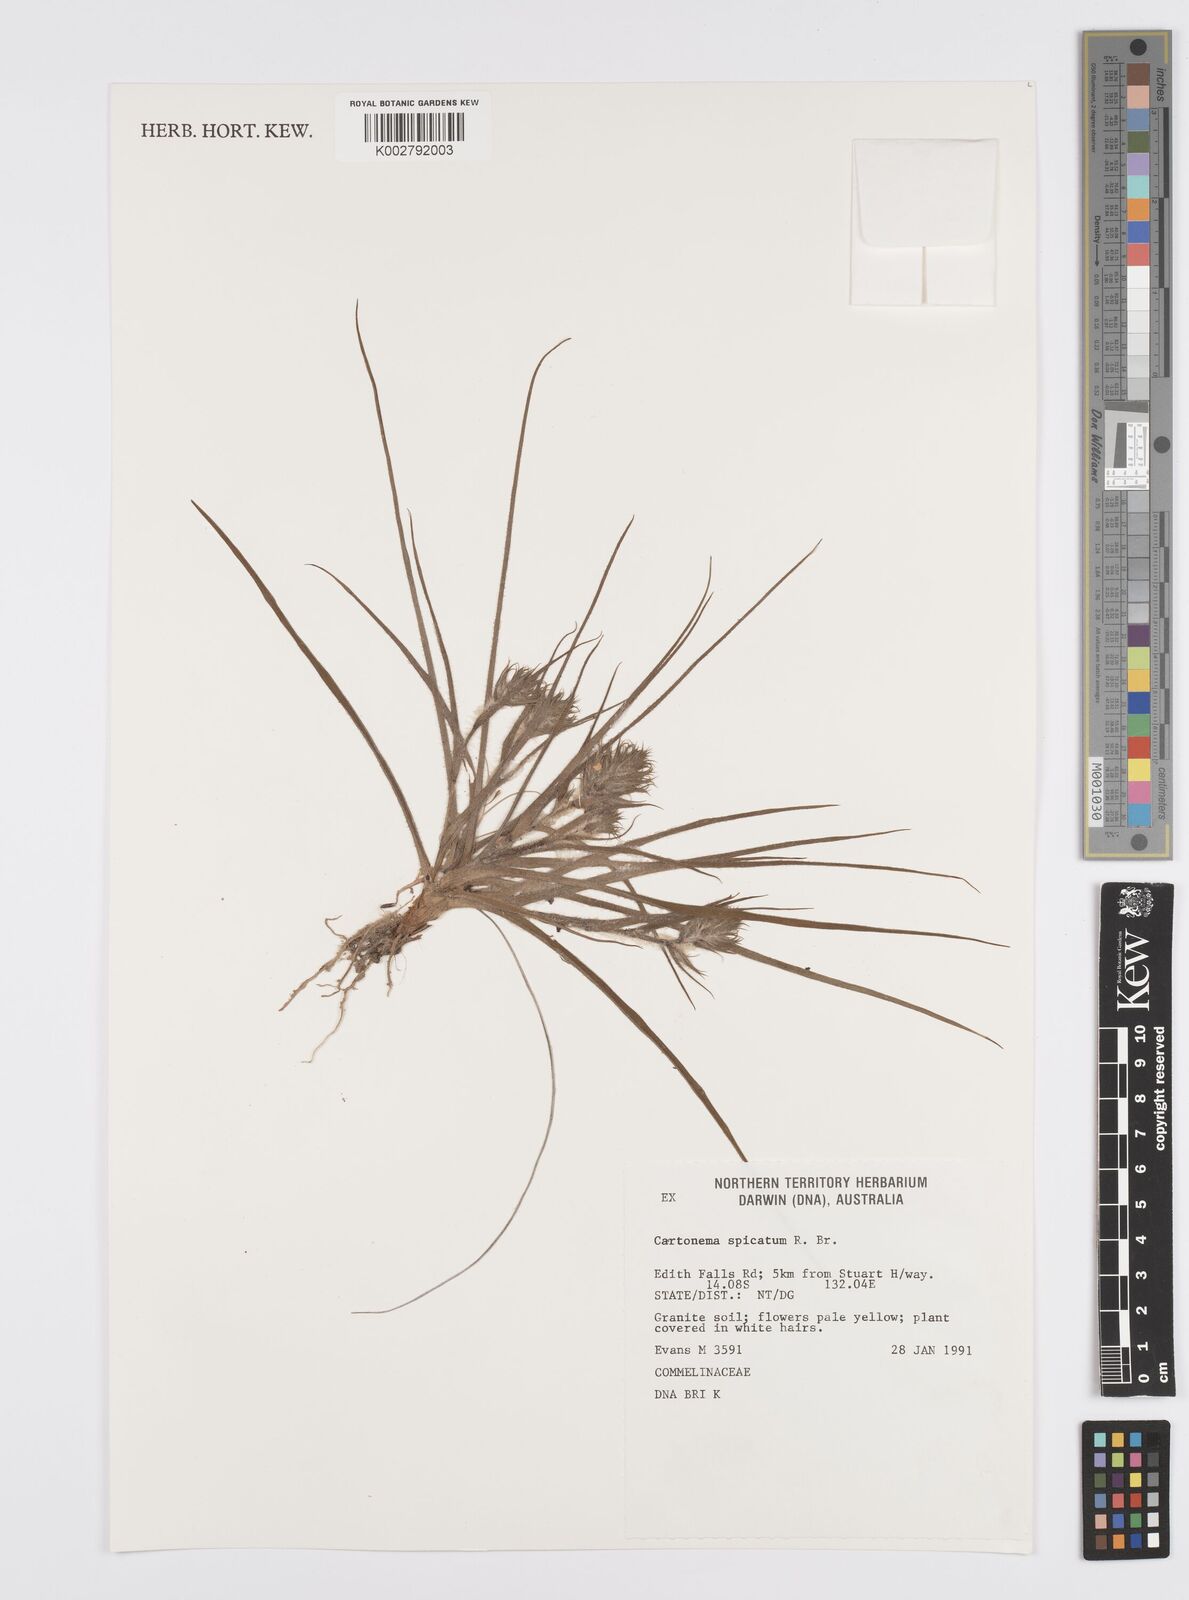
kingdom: Plantae
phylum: Tracheophyta
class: Liliopsida
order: Commelinales
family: Commelinaceae
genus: Cartonema
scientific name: Cartonema spicatum
